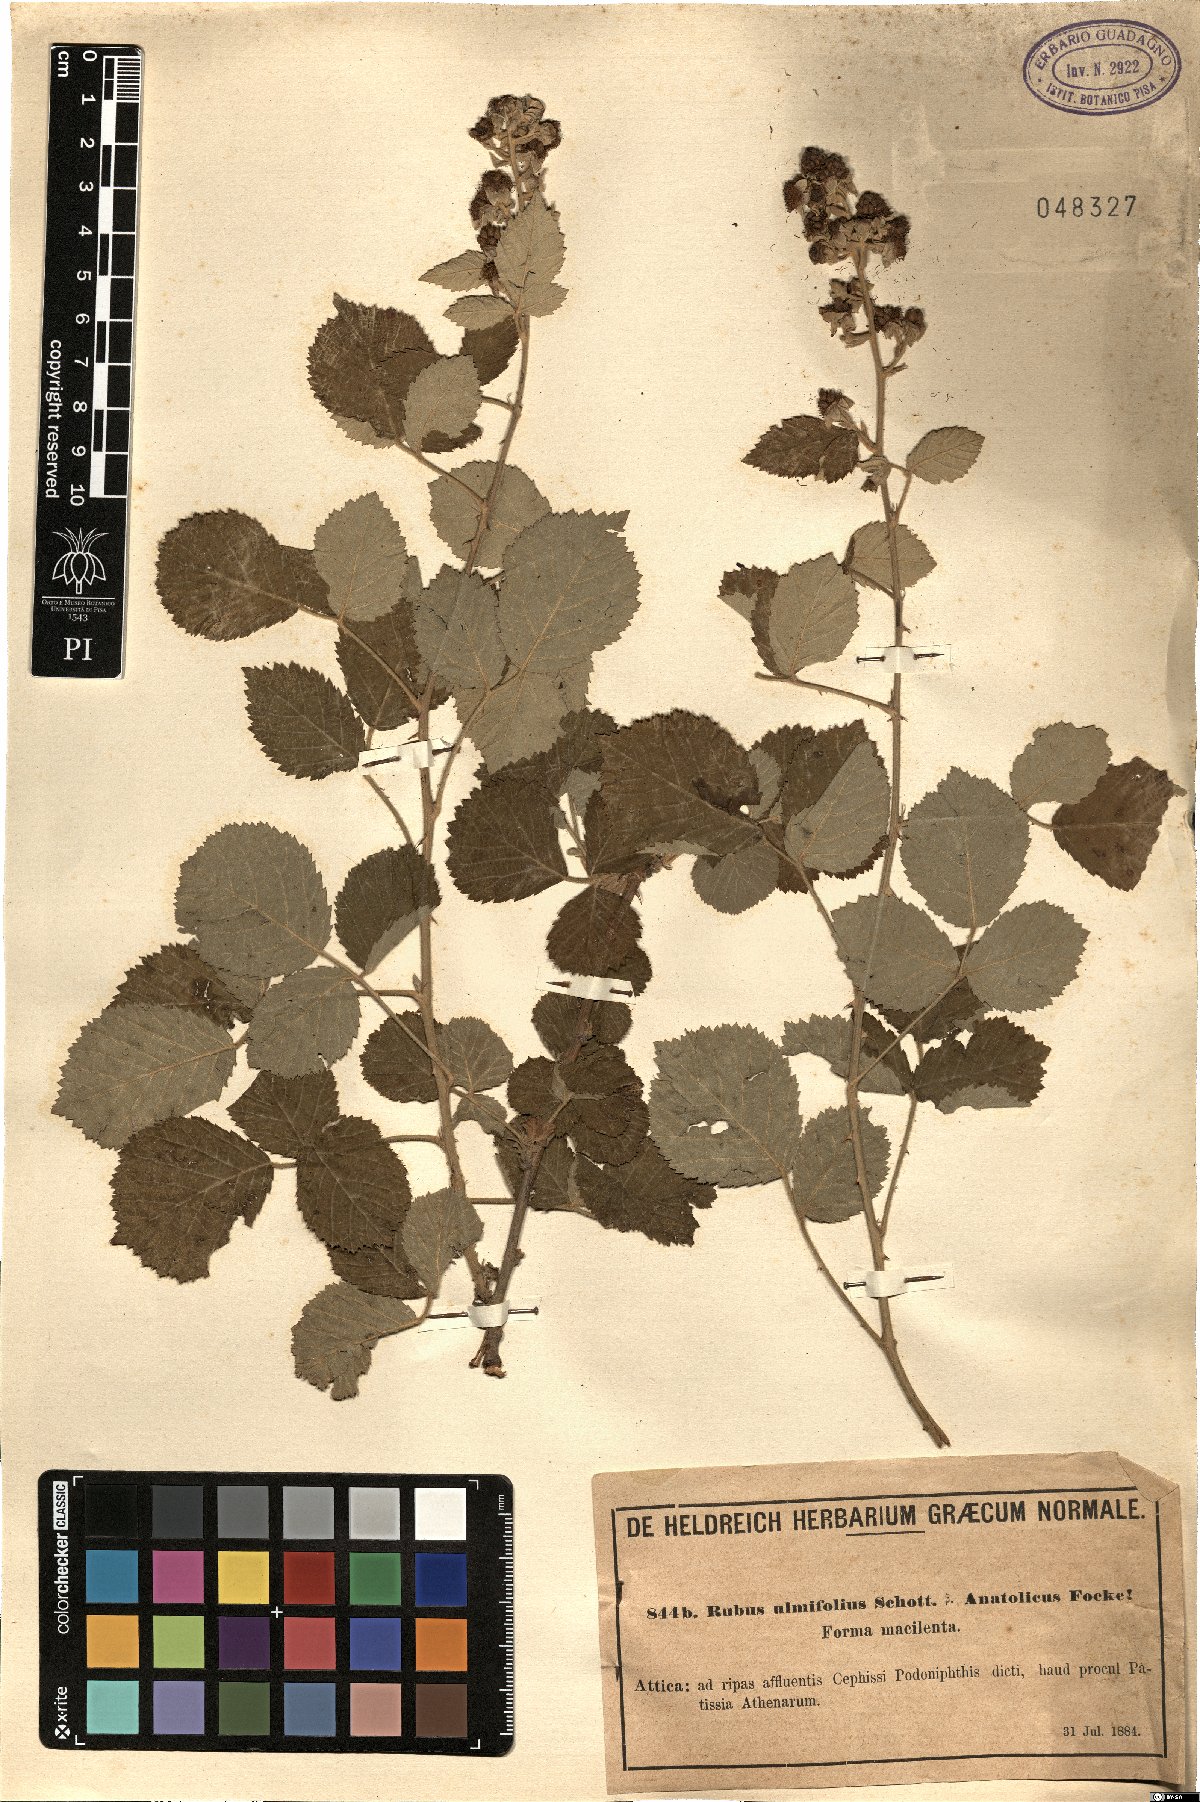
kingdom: Plantae
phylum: Tracheophyta
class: Magnoliopsida
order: Rosales
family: Rosaceae
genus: Rubus
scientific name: Rubus sanctus
